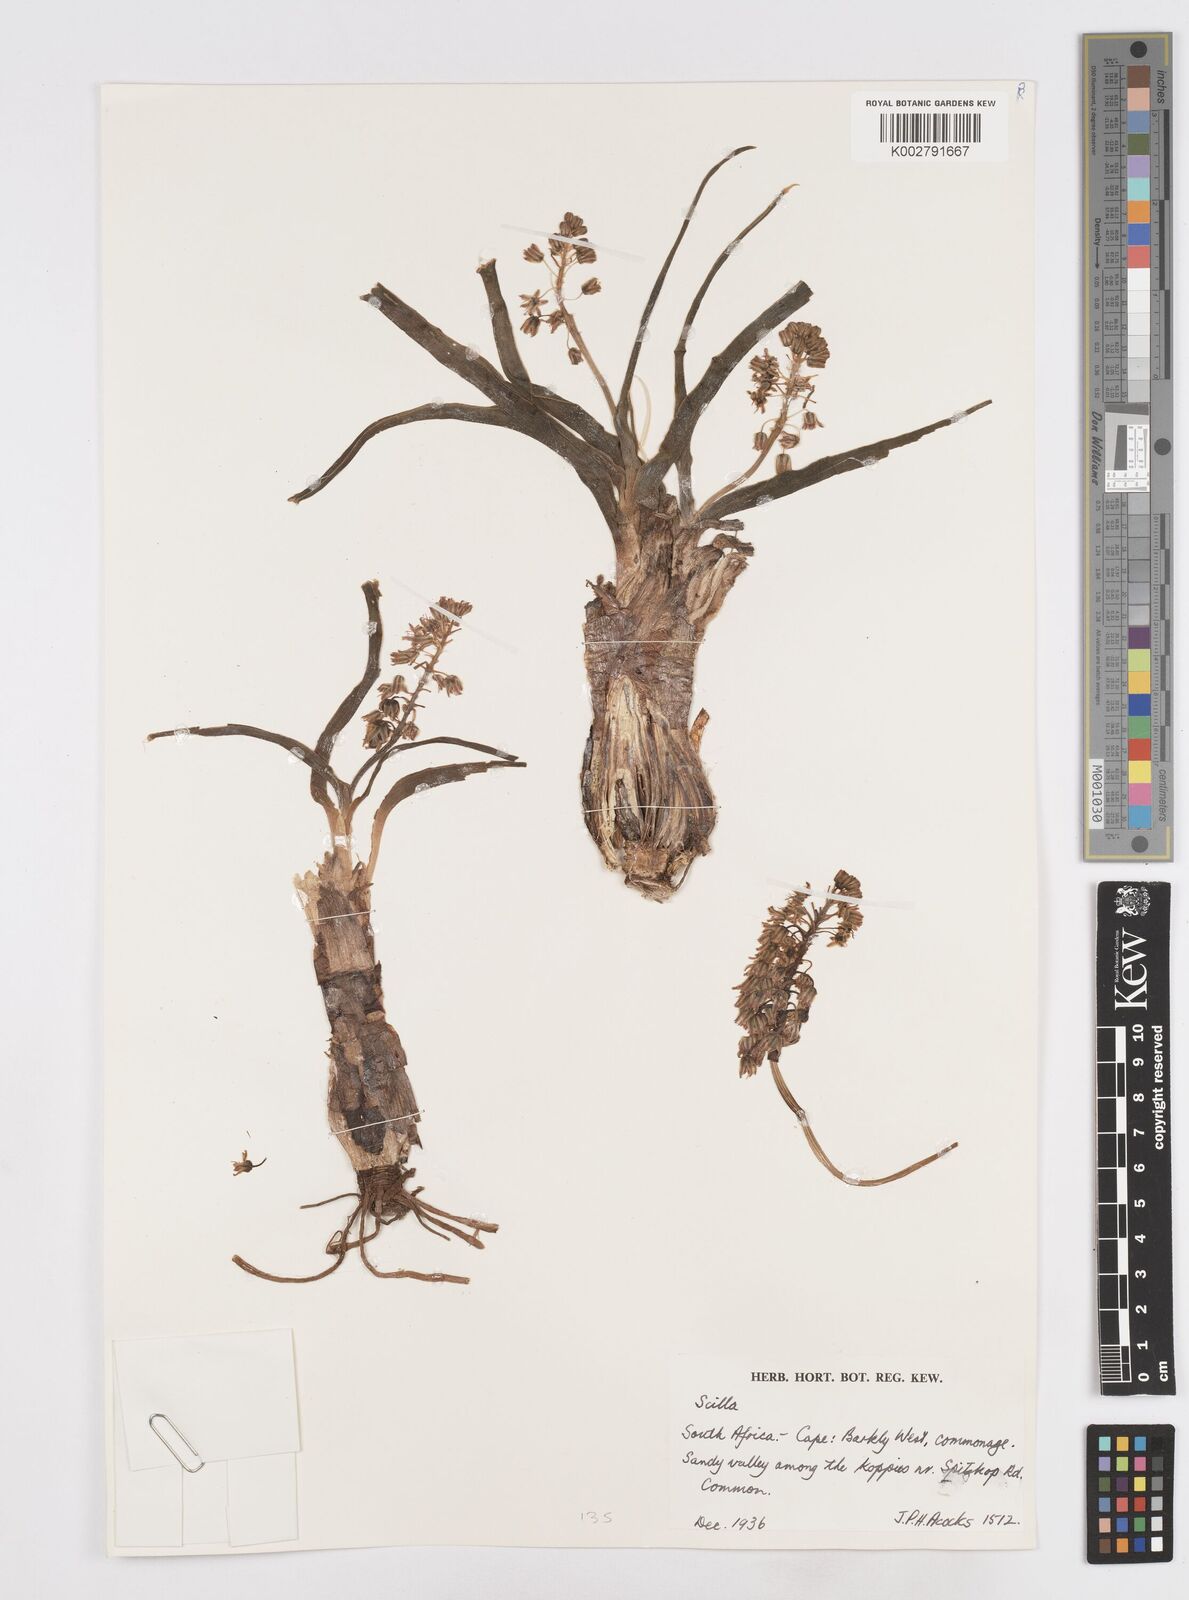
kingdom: Plantae
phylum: Tracheophyta
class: Liliopsida
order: Asparagales
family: Asparagaceae
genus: Scilla
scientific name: Scilla
